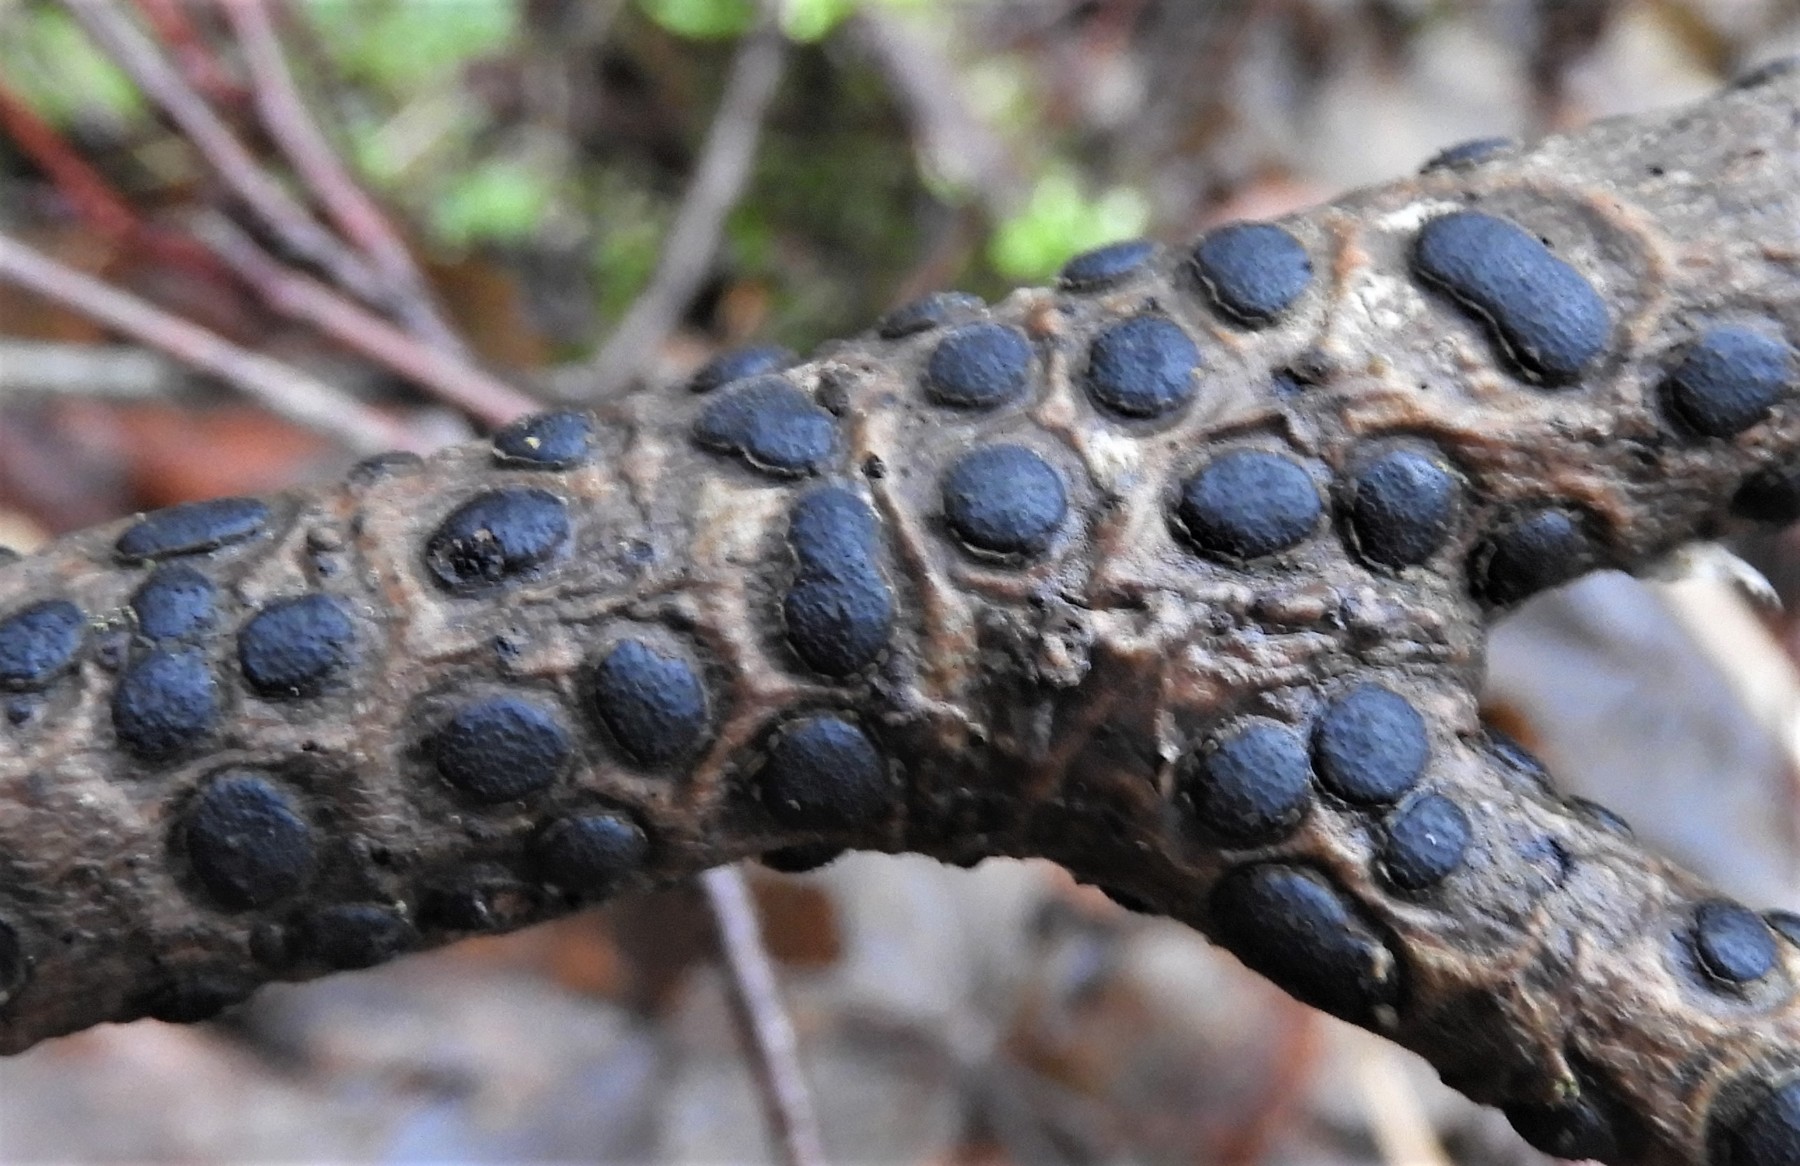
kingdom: Fungi
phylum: Ascomycota
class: Sordariomycetes
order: Xylariales
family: Diatrypaceae
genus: Diatrype
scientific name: Diatrype bullata
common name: pile-kulskorpe
